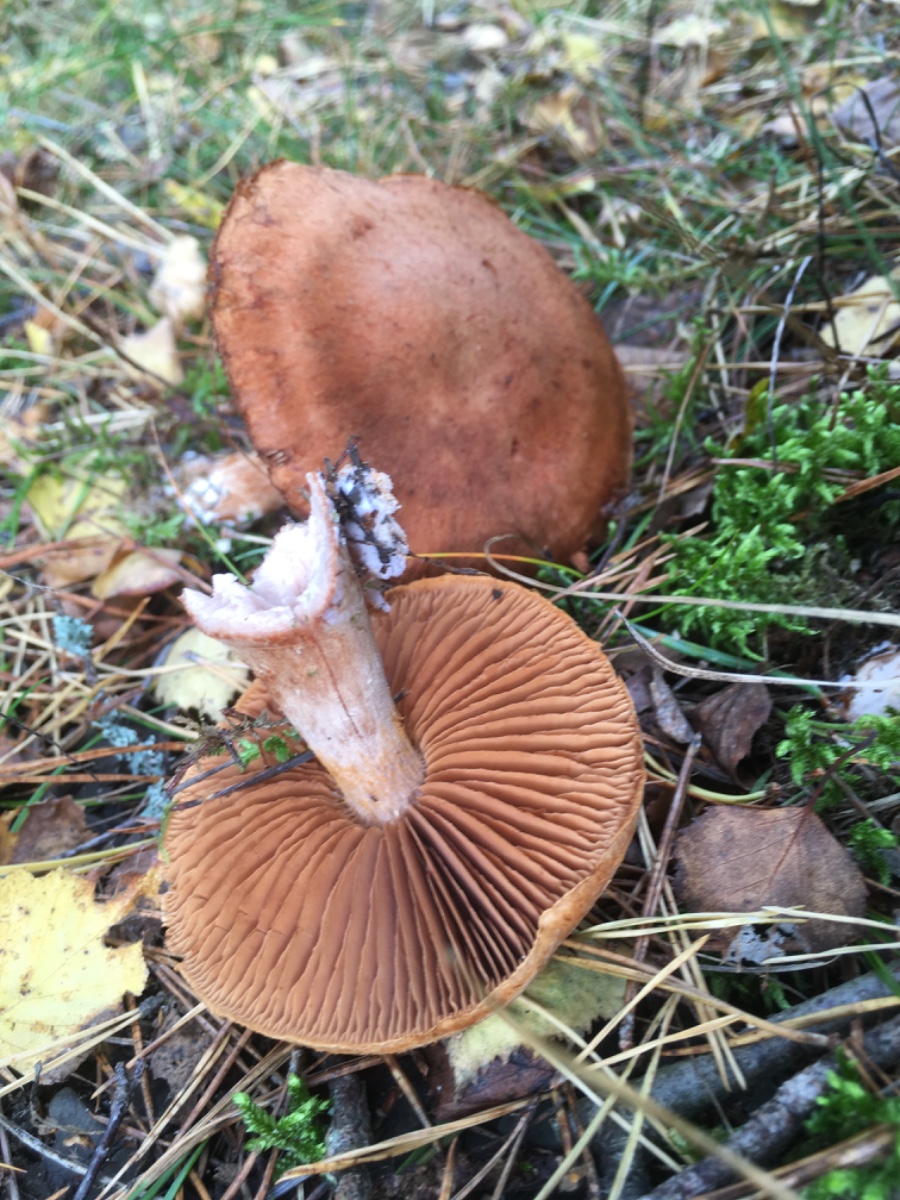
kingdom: Fungi
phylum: Basidiomycota
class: Agaricomycetes
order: Agaricales
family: Cortinariaceae
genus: Cortinarius
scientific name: Cortinarius
